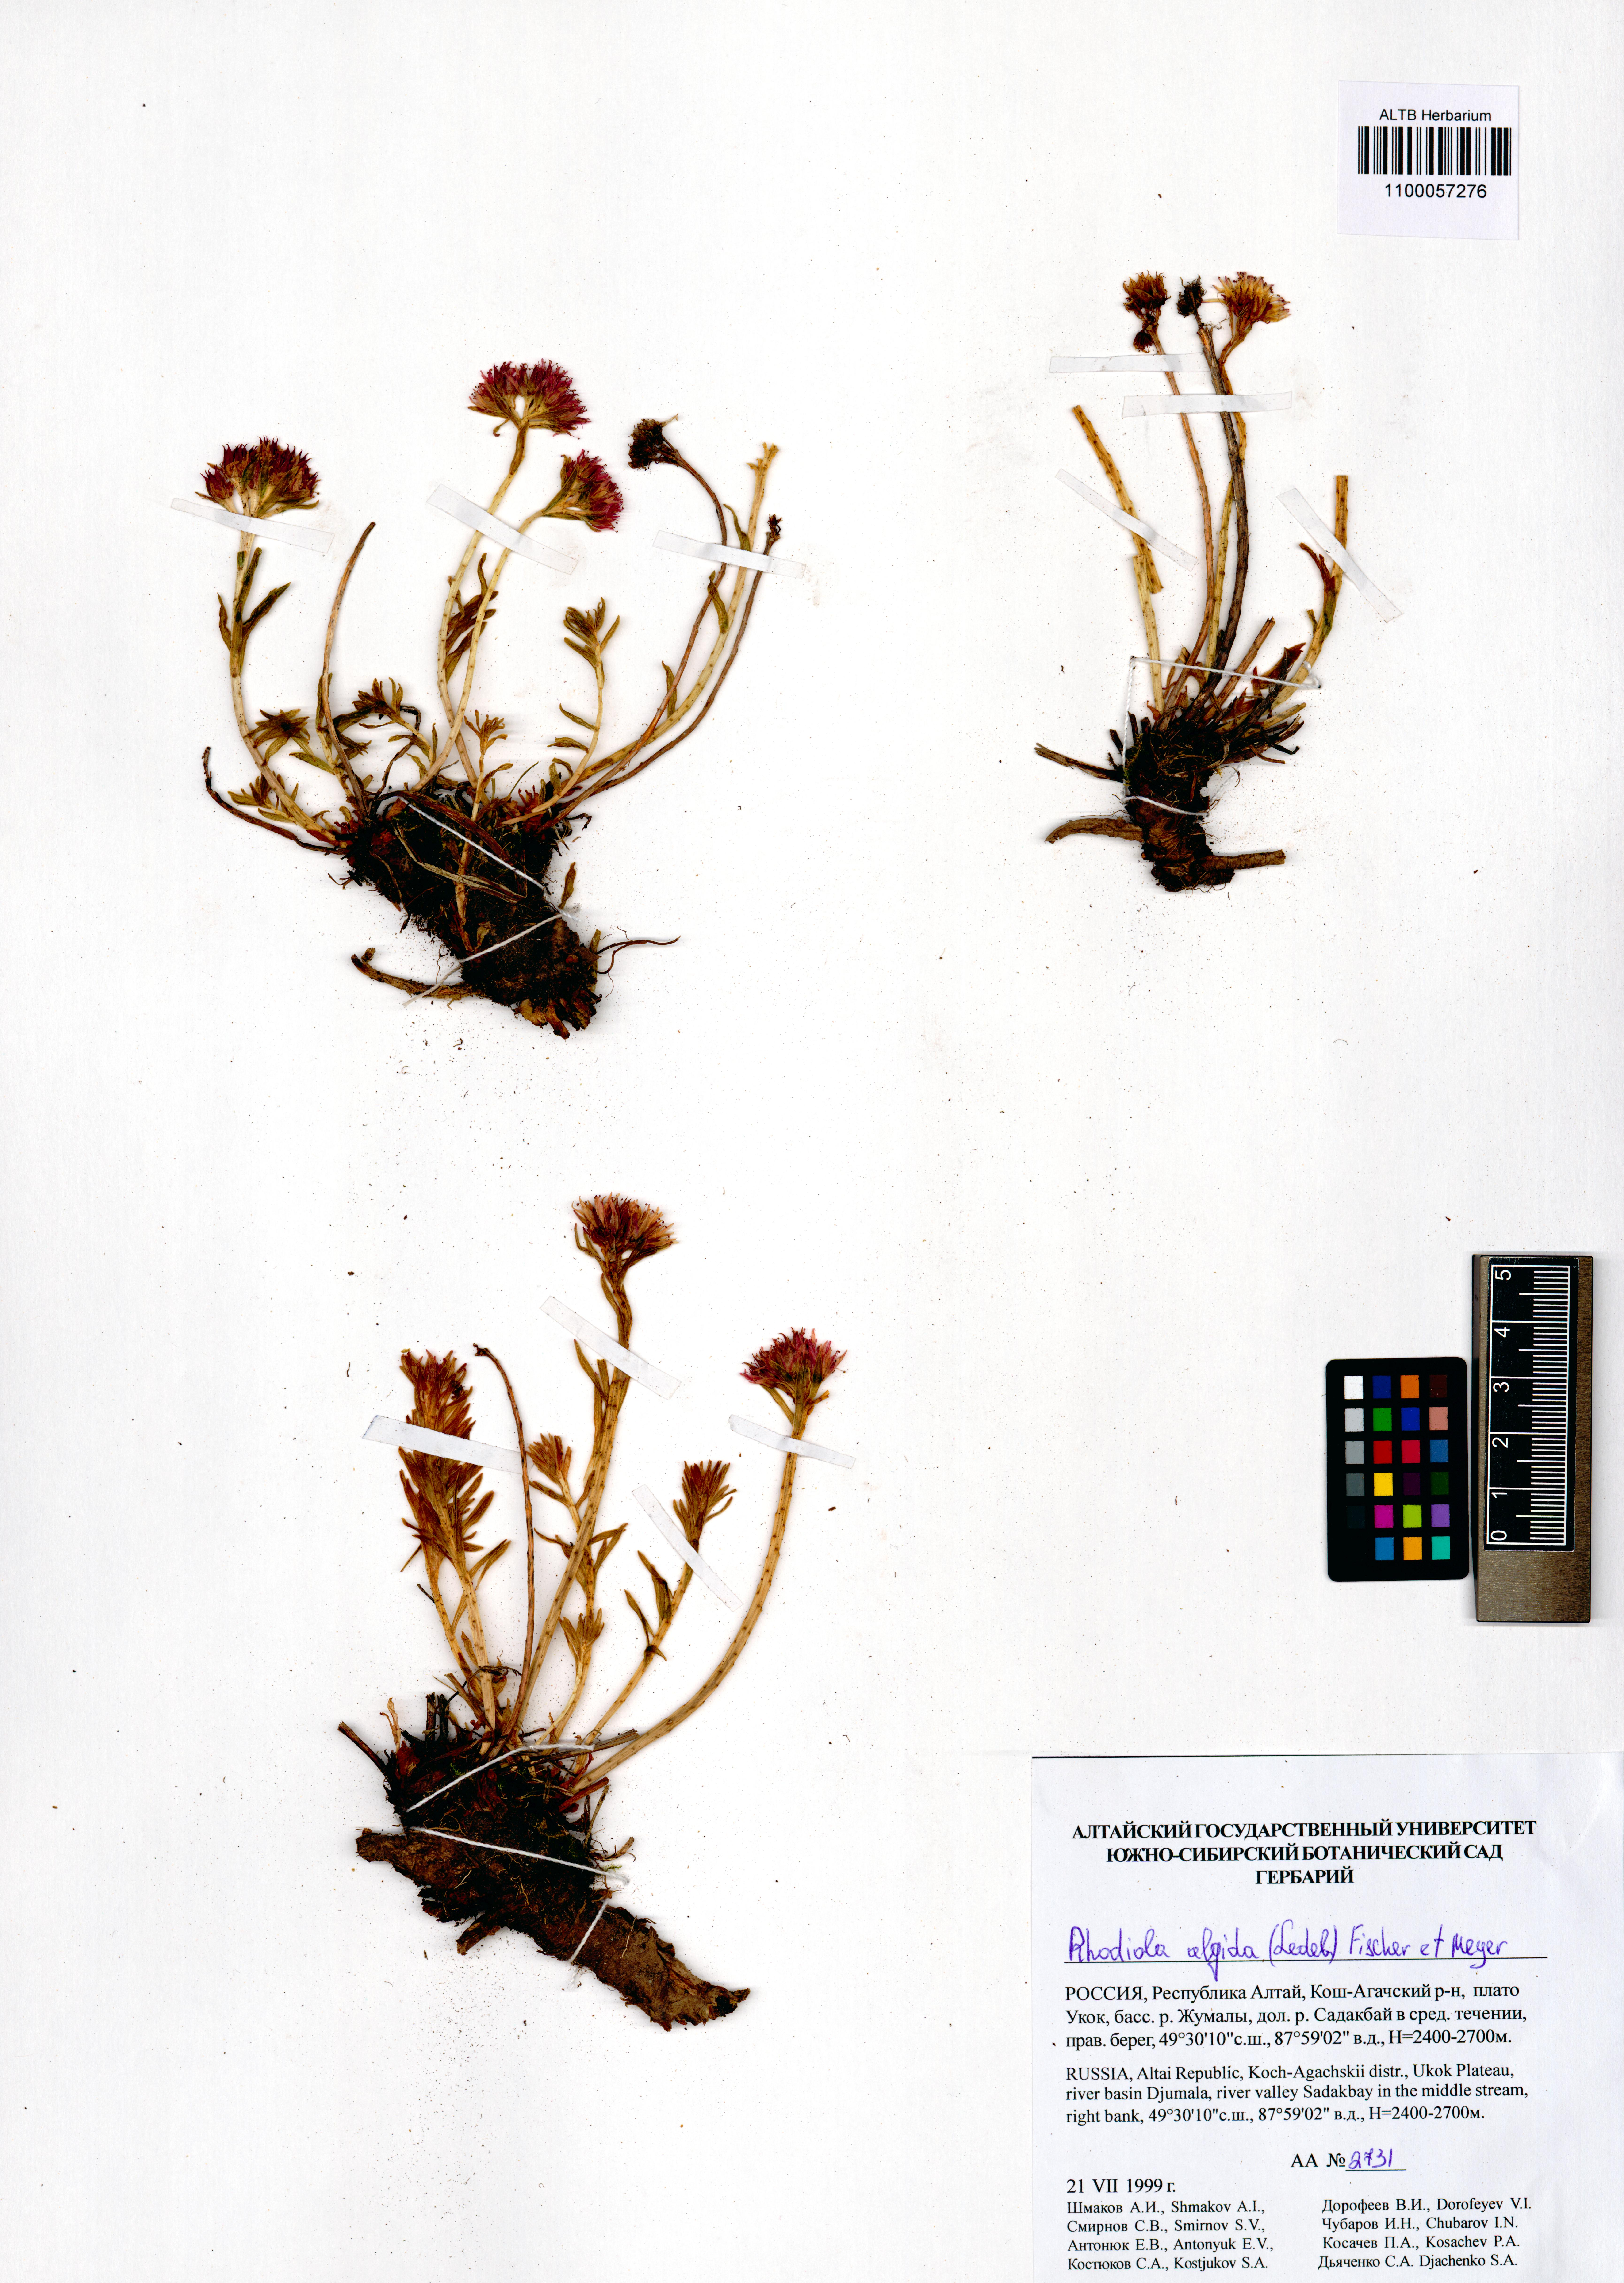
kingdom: Plantae
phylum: Tracheophyta
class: Magnoliopsida
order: Saxifragales
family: Crassulaceae
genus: Rhodiola
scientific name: Rhodiola algida
